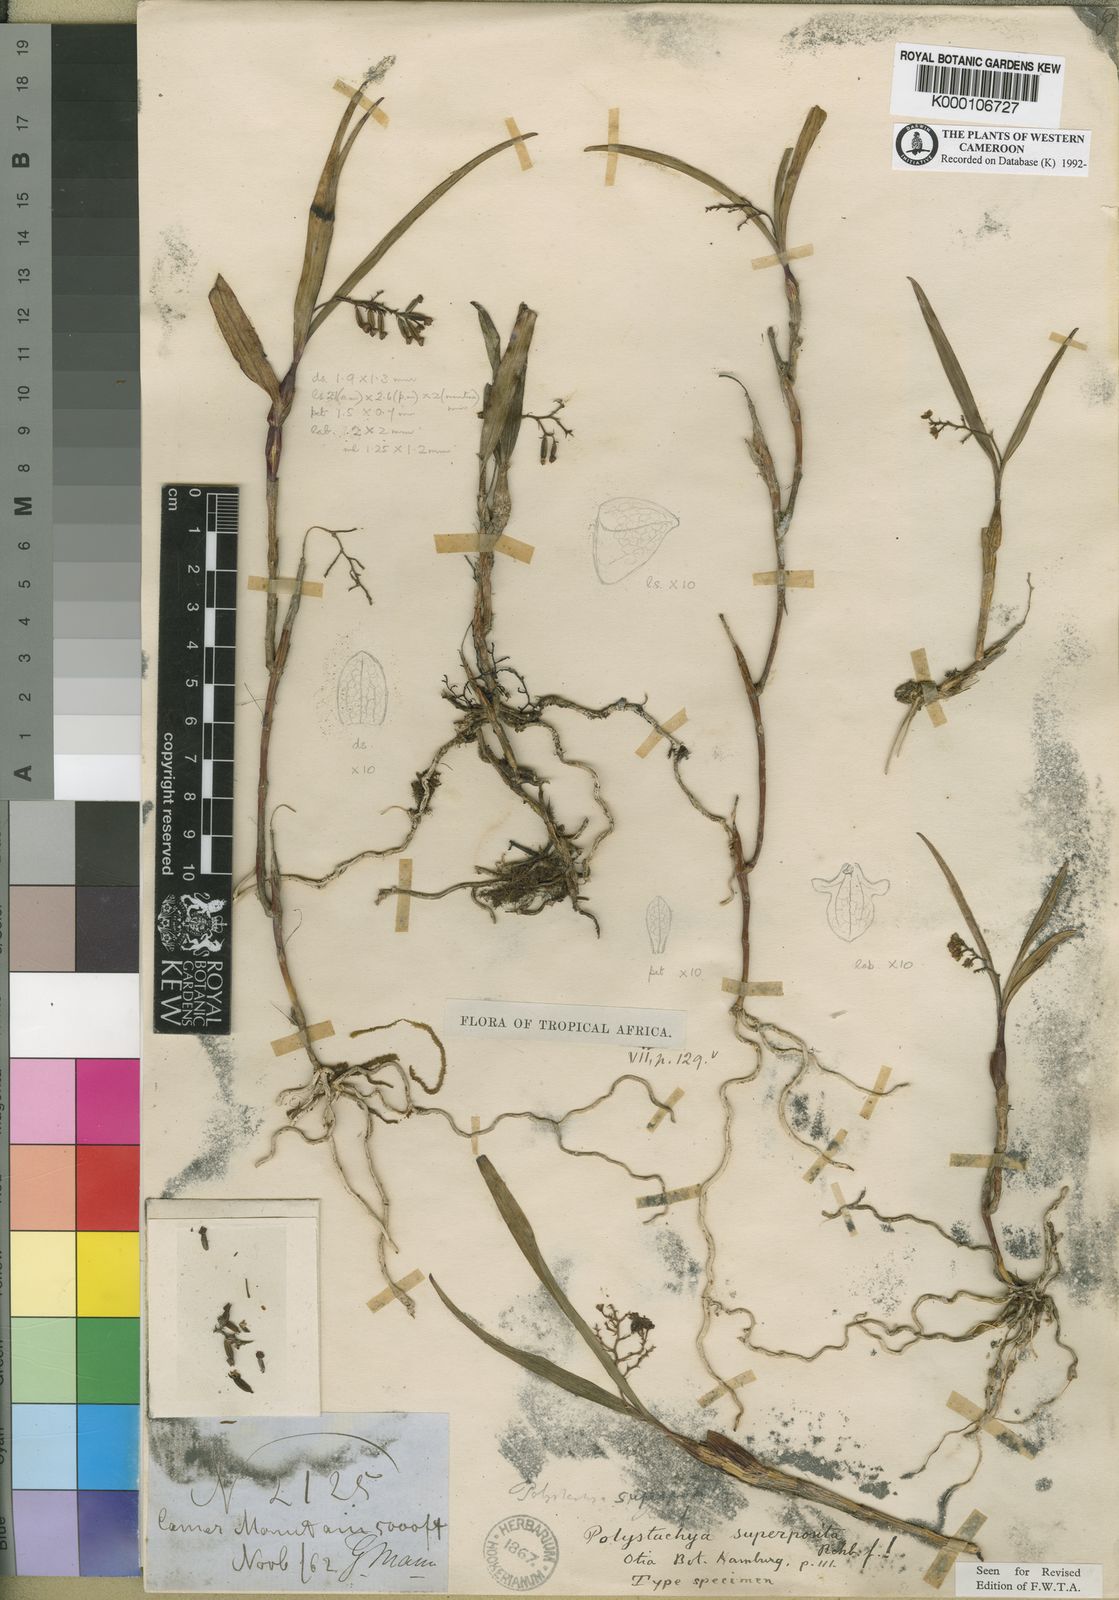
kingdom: Plantae
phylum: Tracheophyta
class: Liliopsida
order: Asparagales
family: Orchidaceae
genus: Polystachya
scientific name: Polystachya superposita
